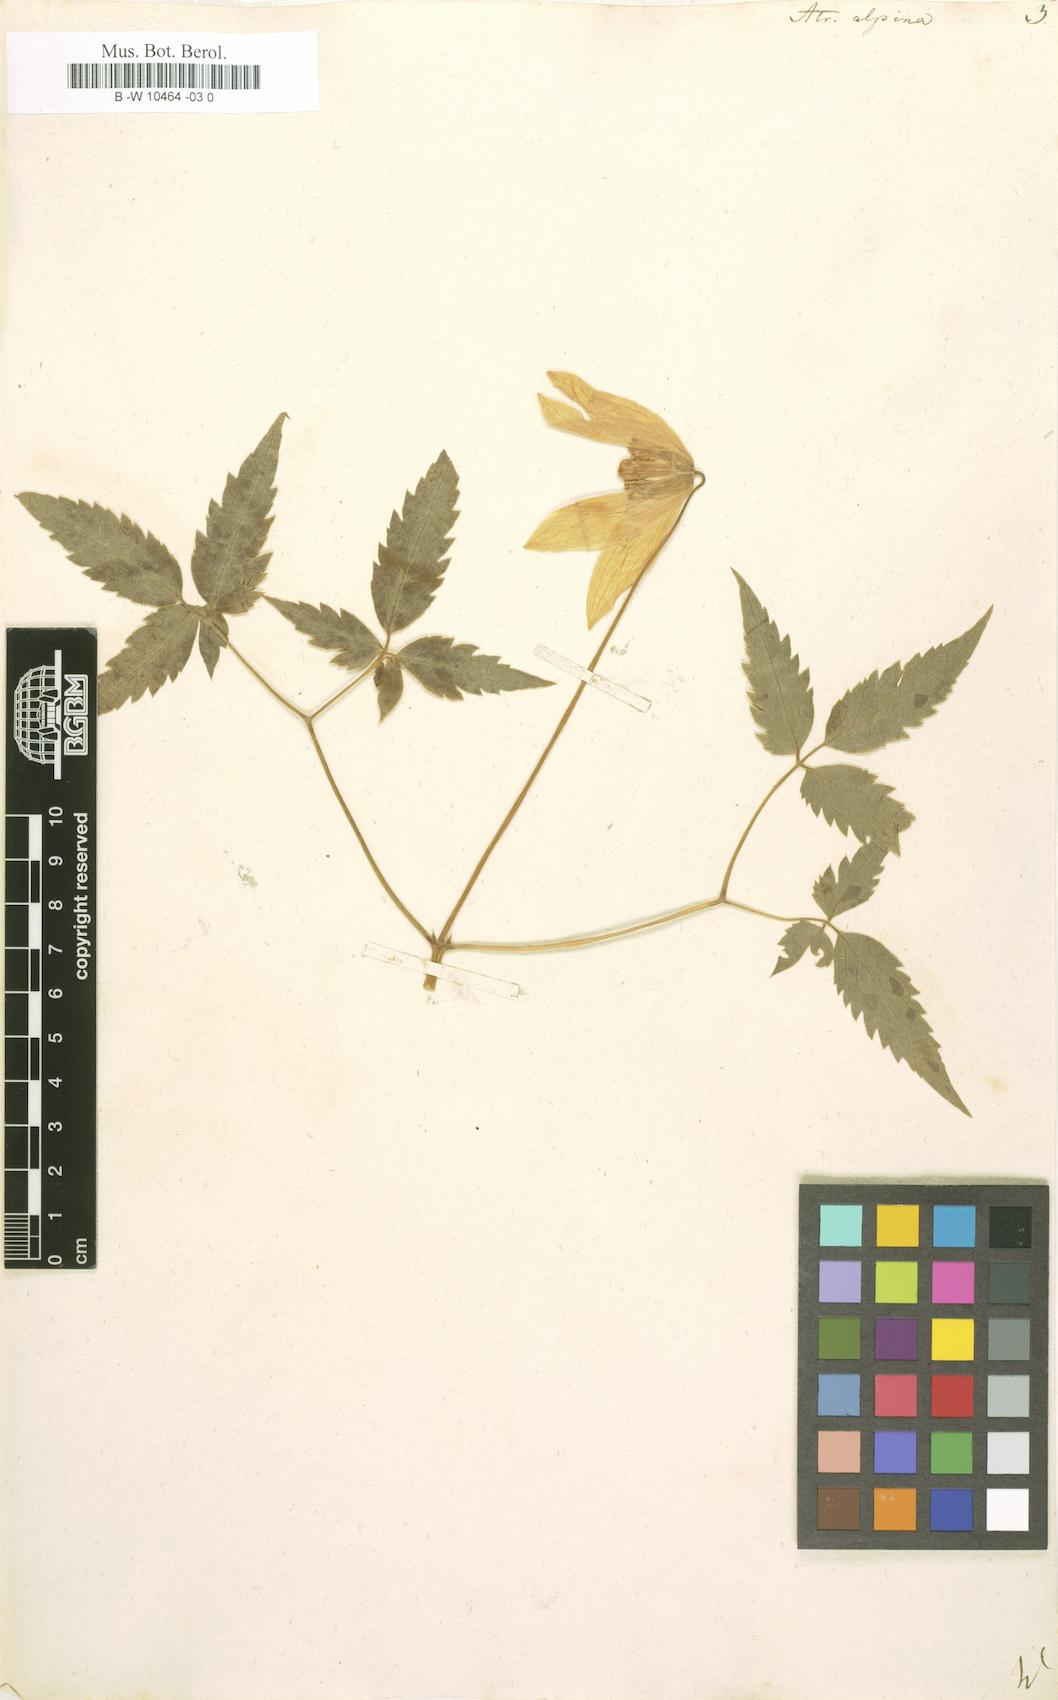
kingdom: Plantae
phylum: Tracheophyta
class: Magnoliopsida
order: Ranunculales
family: Ranunculaceae
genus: Clematis
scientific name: Clematis alpina
